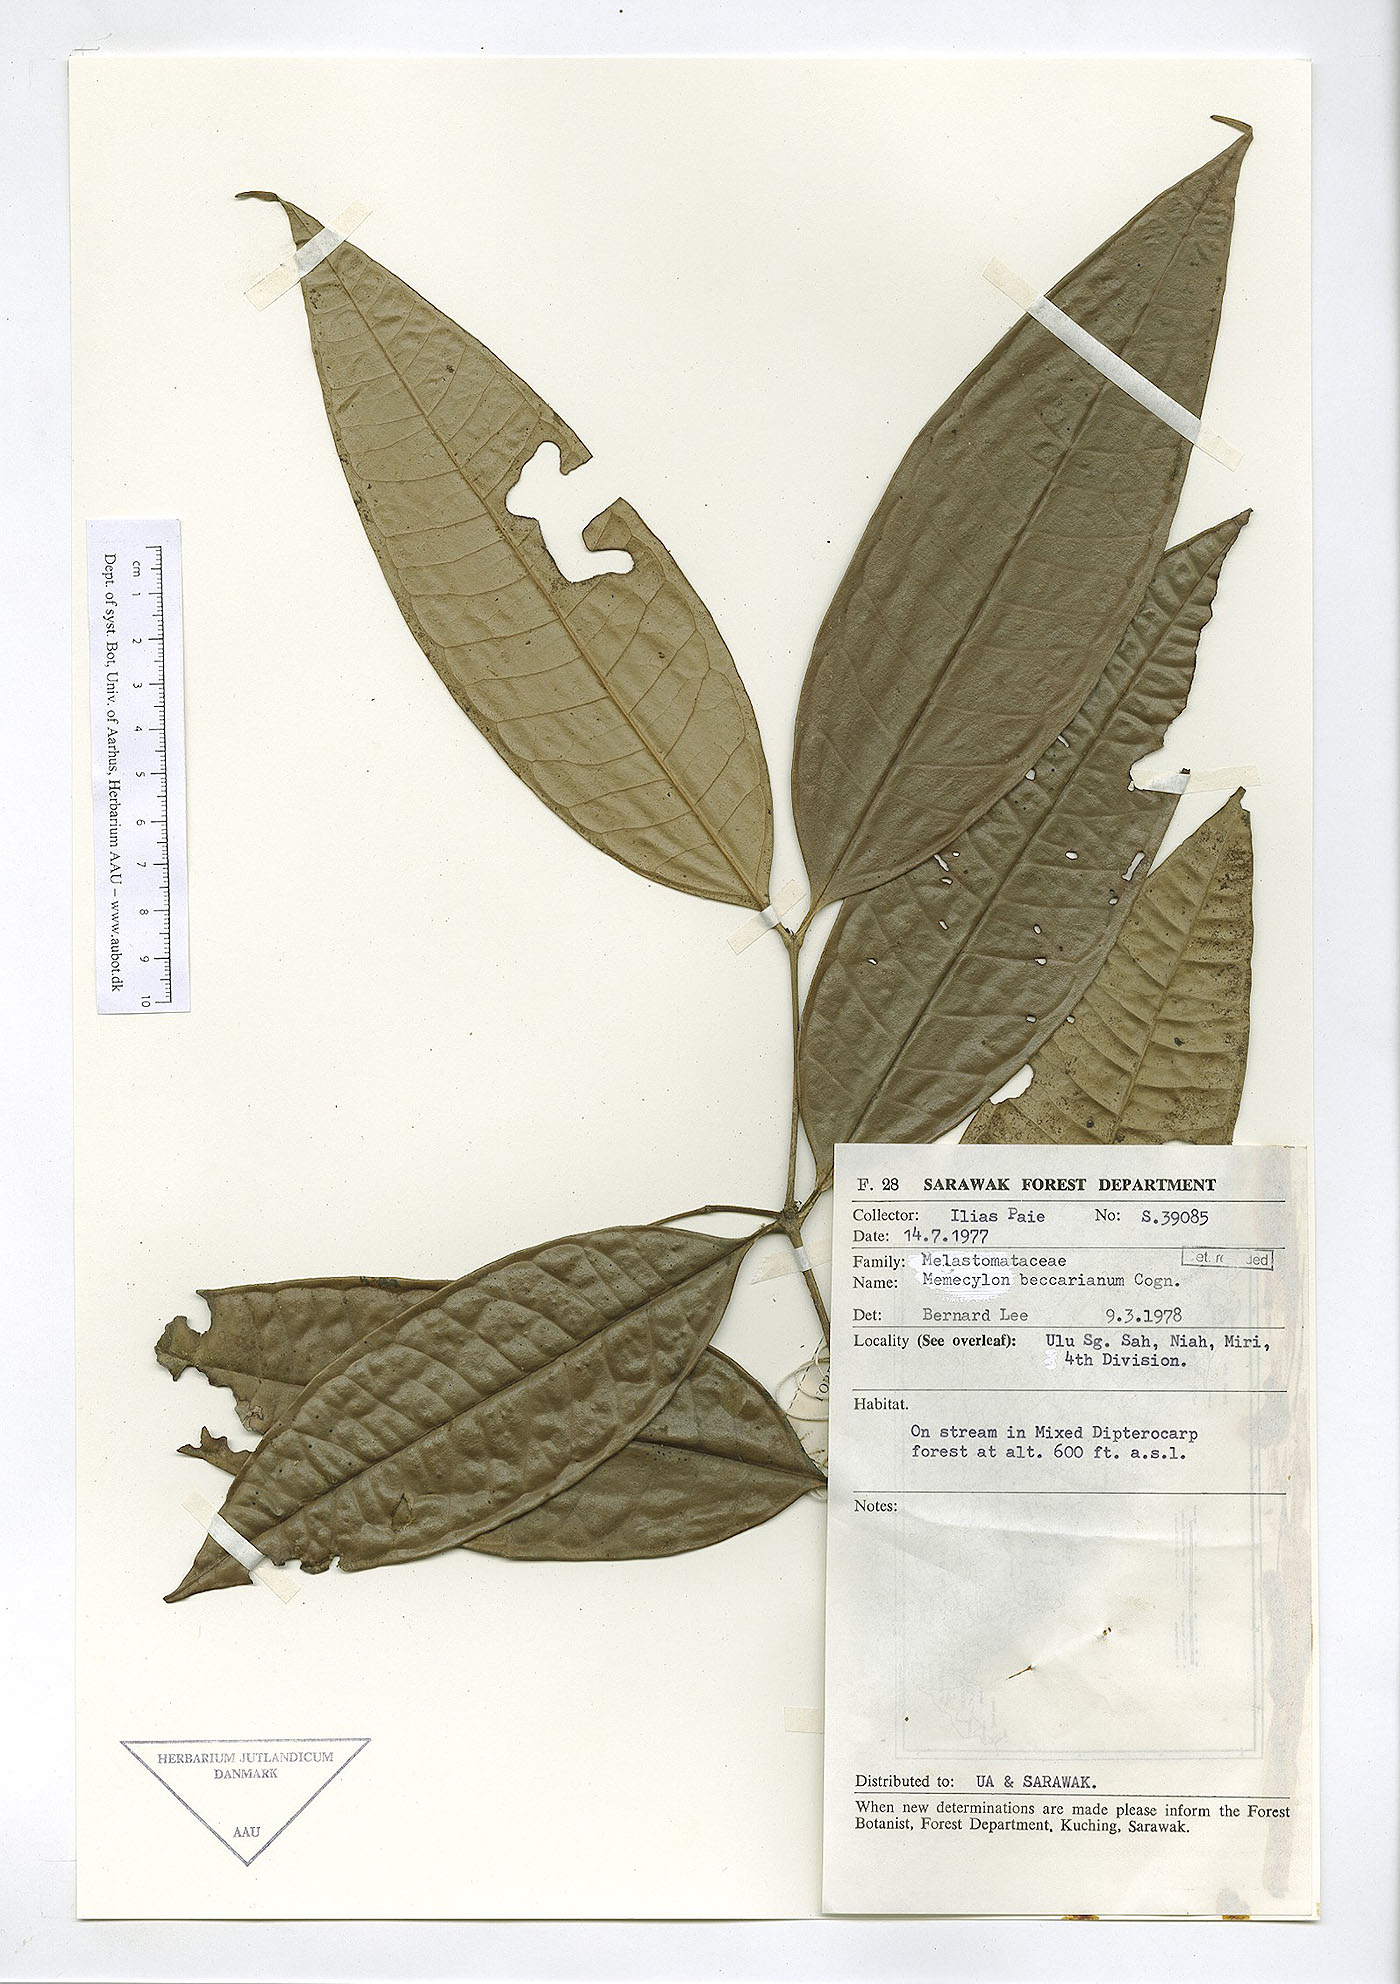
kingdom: Plantae
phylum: Tracheophyta
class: Magnoliopsida
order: Myrtales
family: Melastomataceae
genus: Memecylon
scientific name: Memecylon beccarianum
